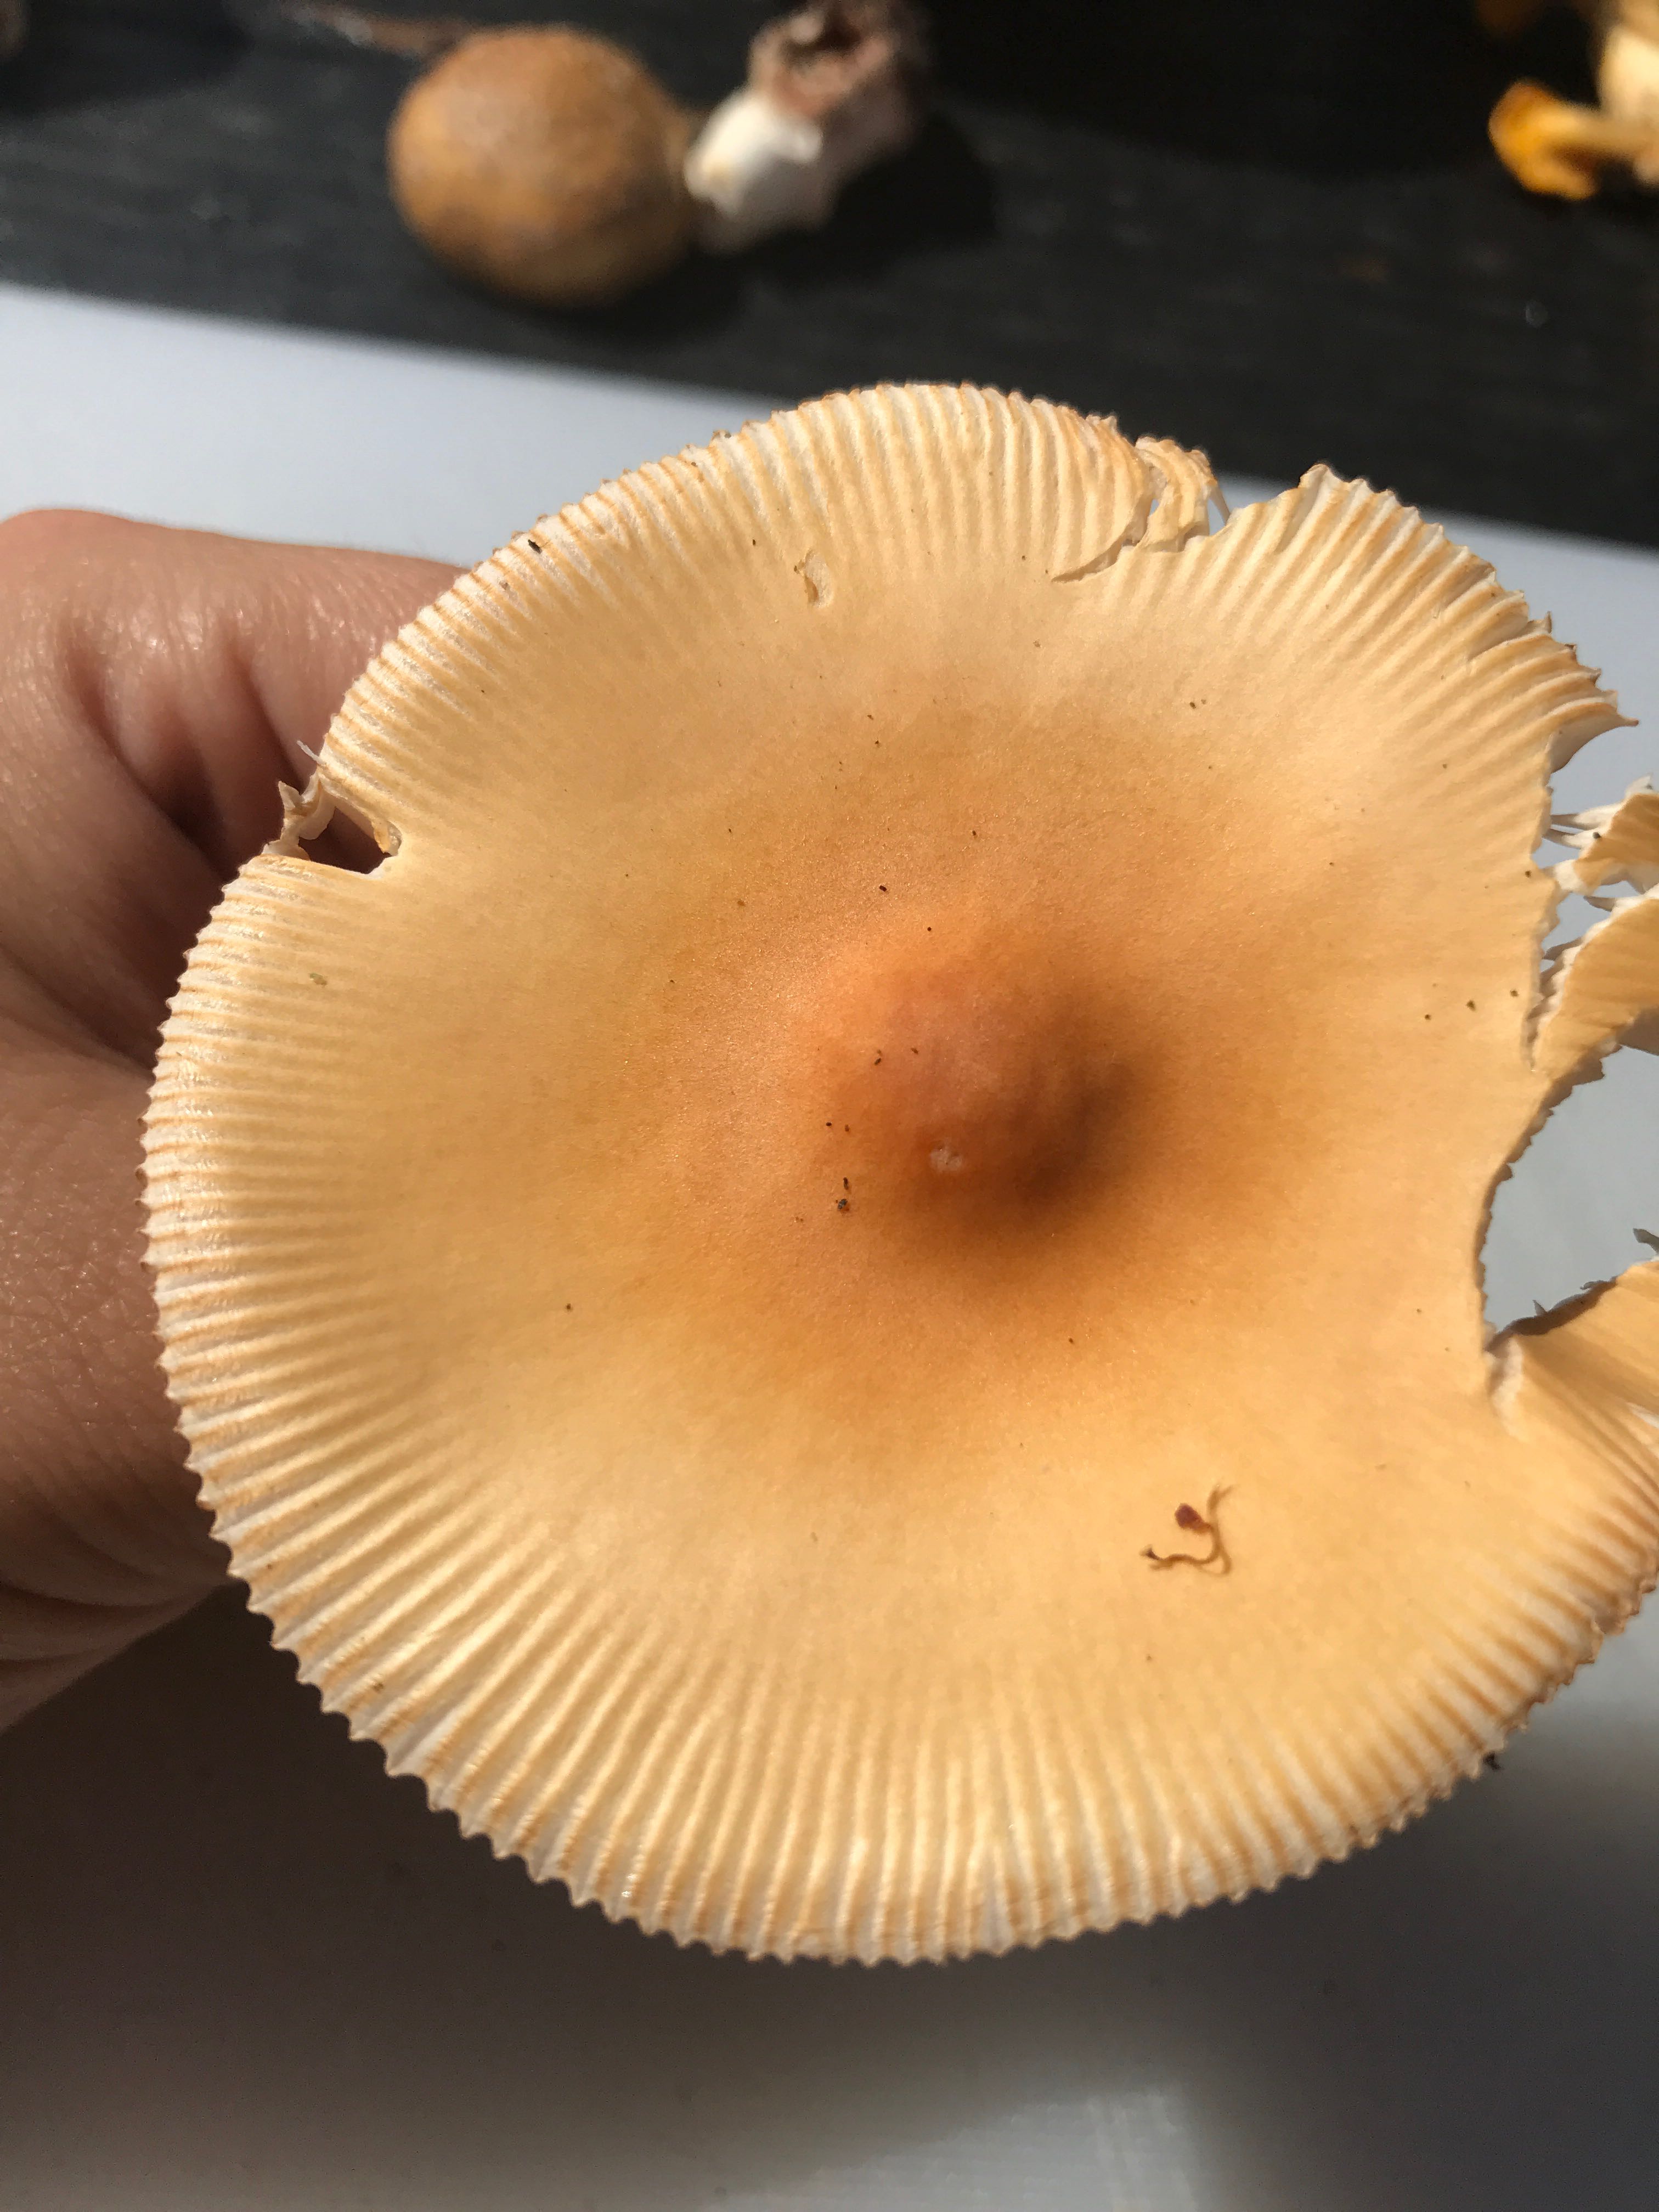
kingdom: Fungi
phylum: Basidiomycota
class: Agaricomycetes
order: Agaricales
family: Amanitaceae
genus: Amanita
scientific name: Amanita fulva
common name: brun kam-fluesvamp
